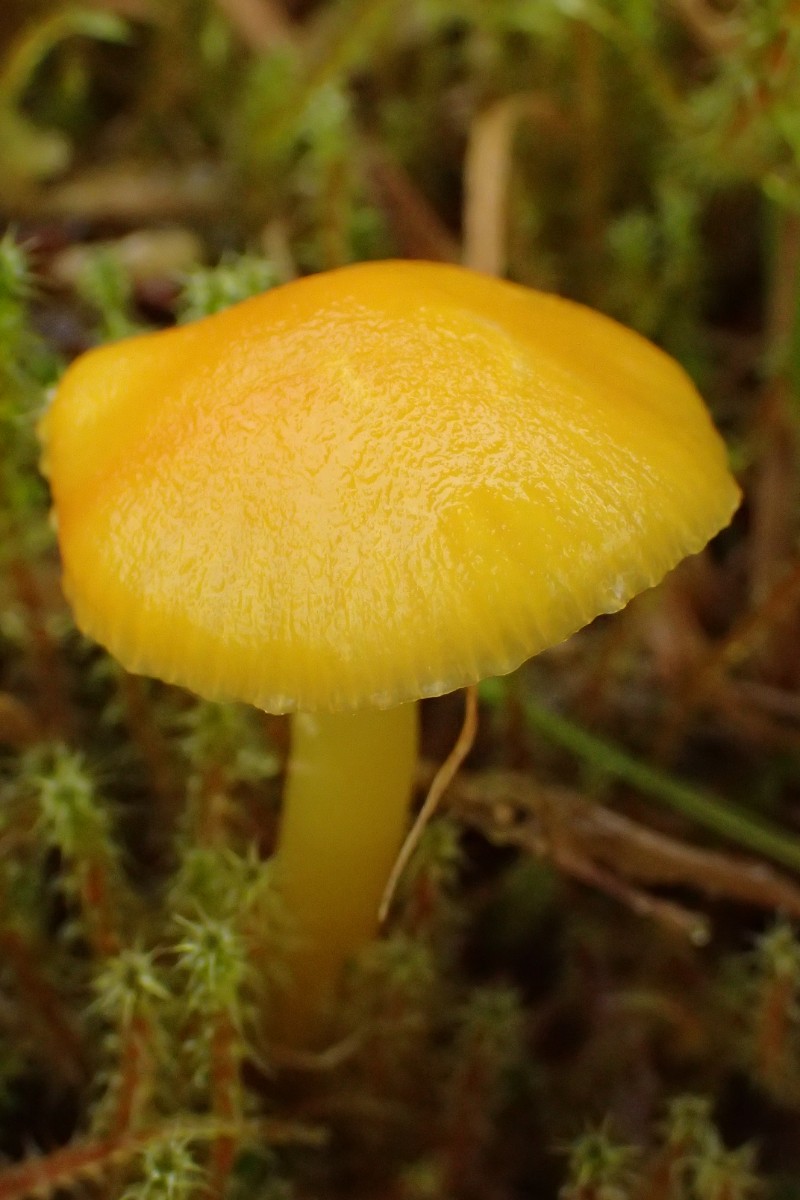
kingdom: Fungi
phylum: Basidiomycota
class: Agaricomycetes
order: Agaricales
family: Hygrophoraceae
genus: Hygrocybe
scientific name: Hygrocybe ceracea
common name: voksgul vokshat
